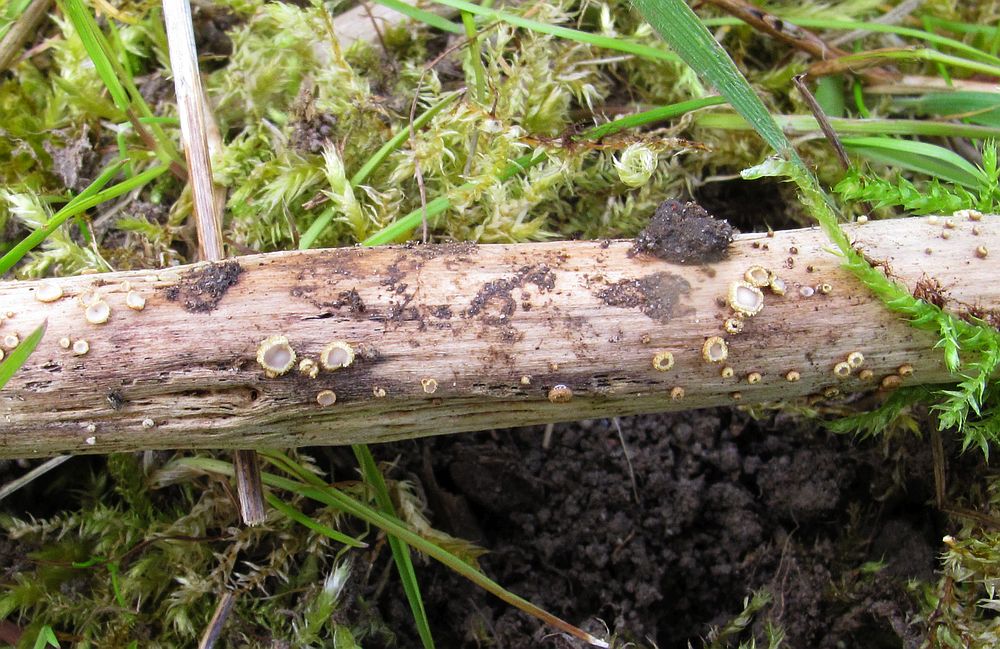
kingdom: Fungi
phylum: Ascomycota
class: Leotiomycetes
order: Helotiales
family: Lachnaceae
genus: Lachnum
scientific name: Lachnum mollissimum
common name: smuk frynseskive
